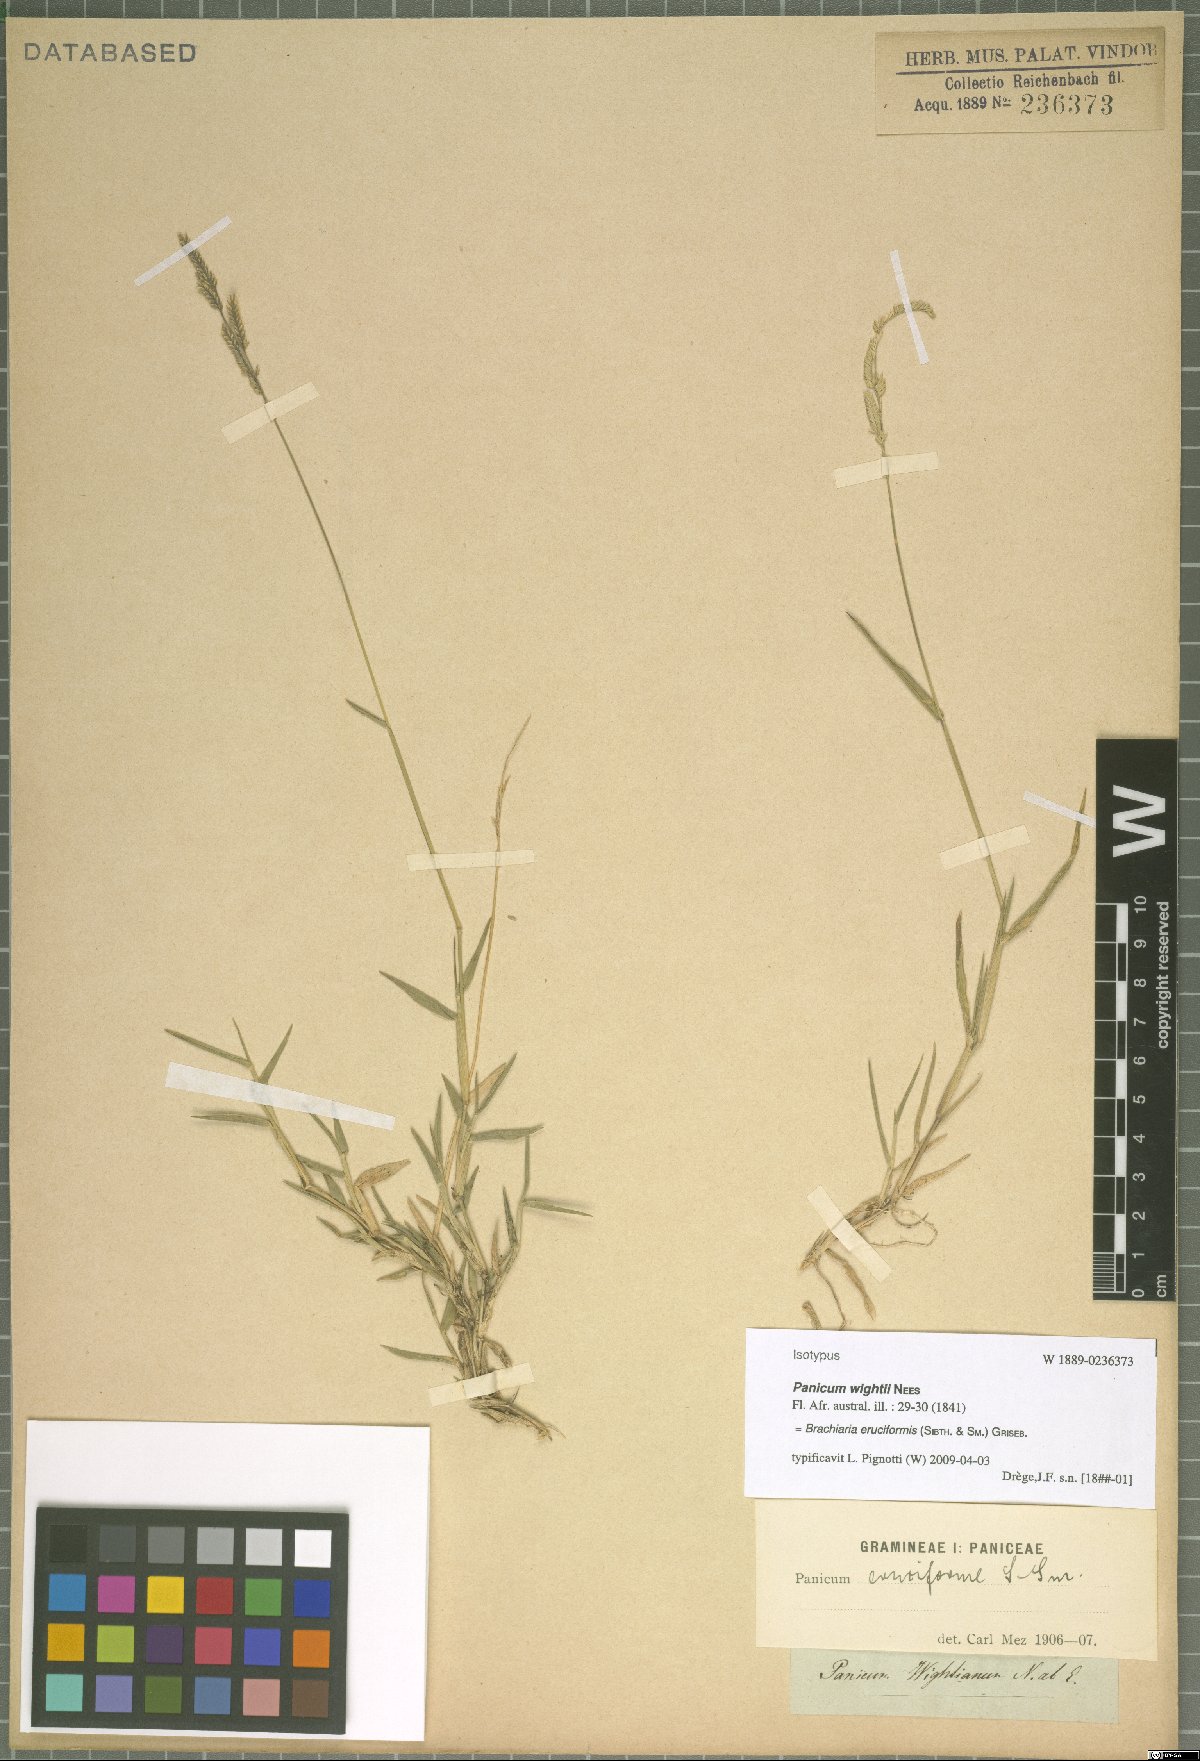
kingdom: Plantae
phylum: Tracheophyta
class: Liliopsida
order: Poales
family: Poaceae
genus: Moorochloa
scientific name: Moorochloa eruciformis
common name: Sweet signalgrass
